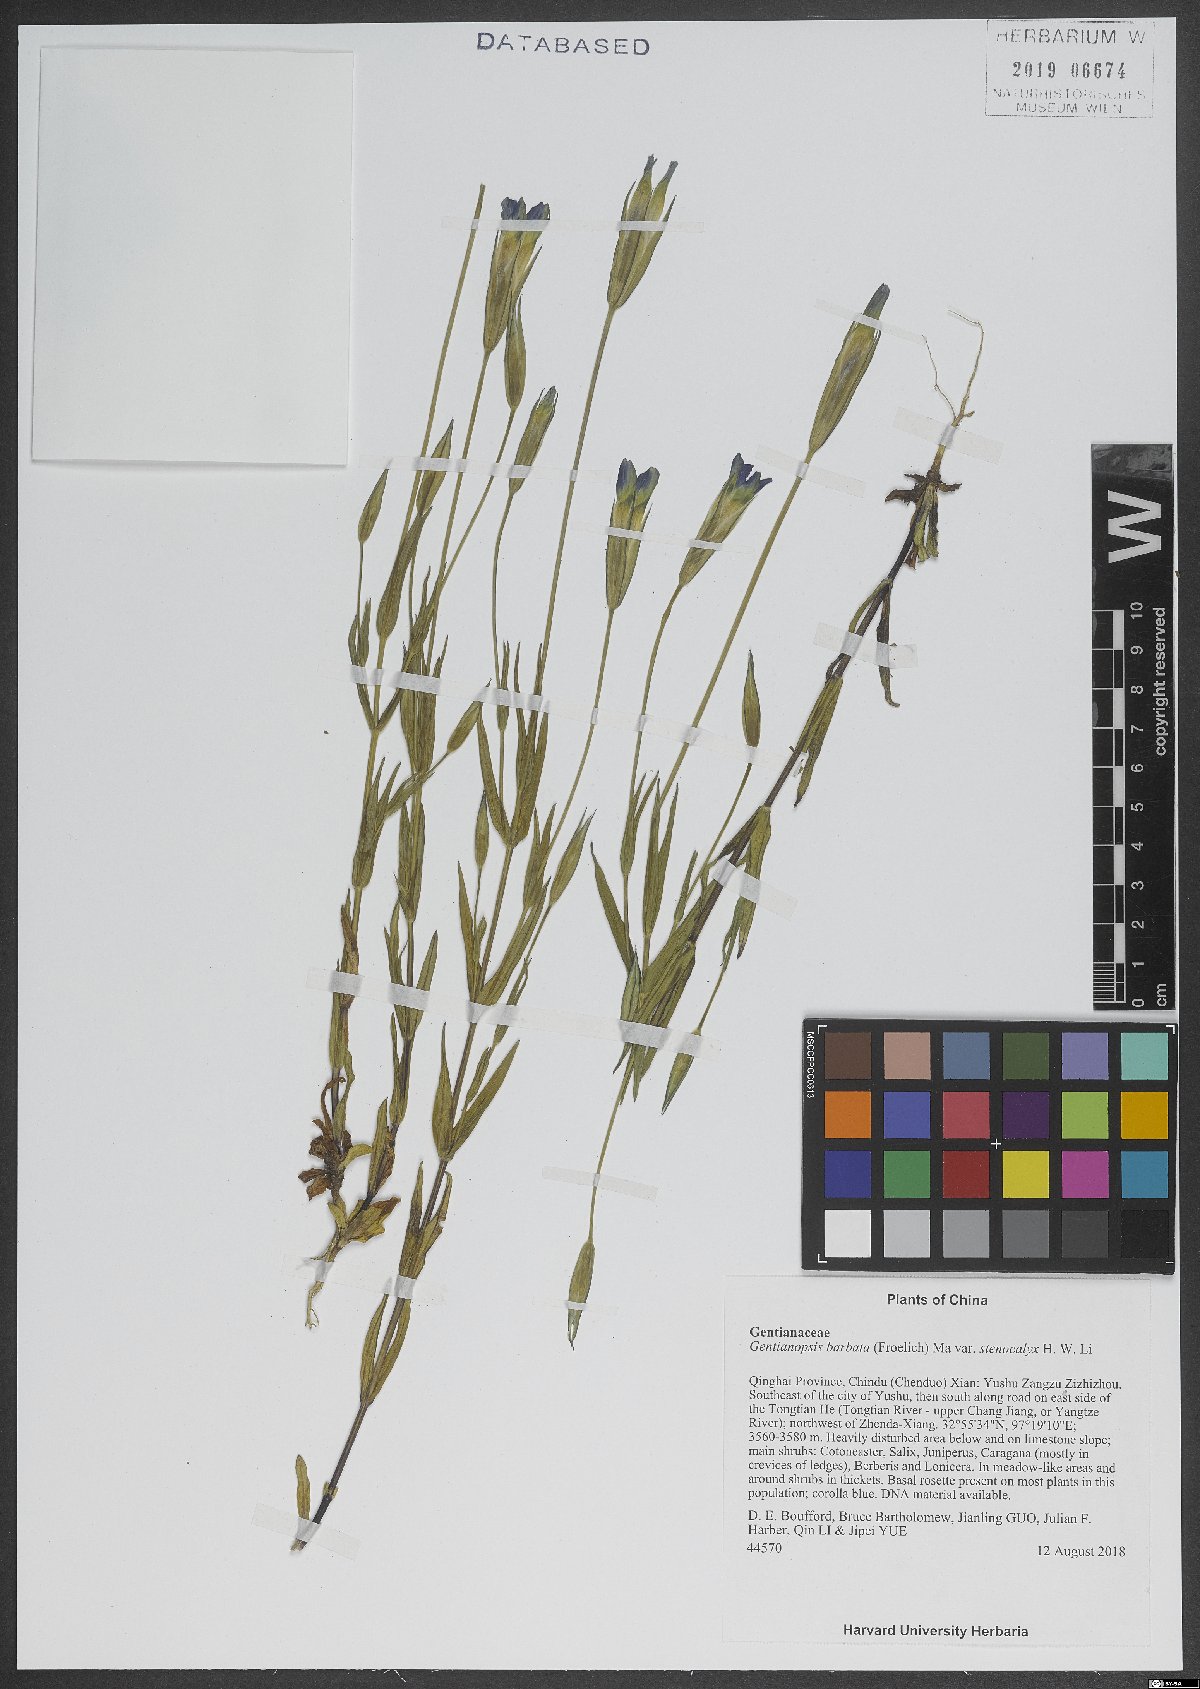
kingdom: Plantae
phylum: Tracheophyta
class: Magnoliopsida
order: Gentianales
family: Gentianaceae
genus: Gentianopsis
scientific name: Gentianopsis barbata
